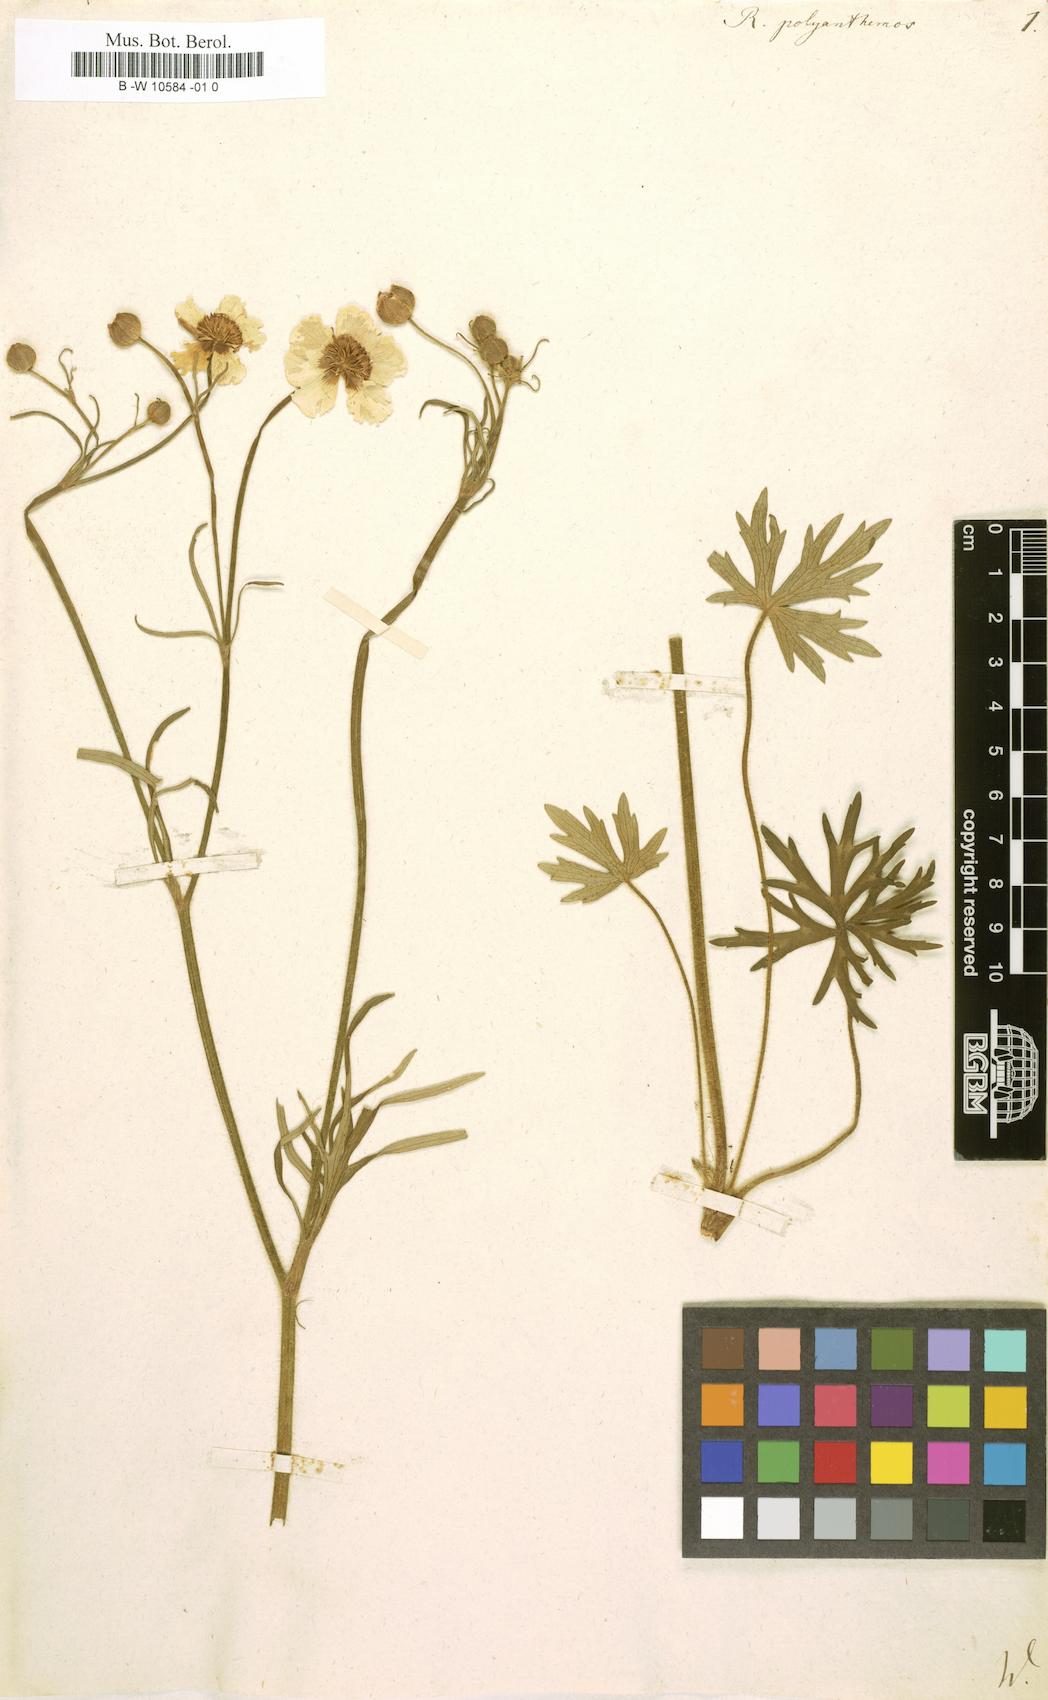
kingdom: Plantae
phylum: Tracheophyta
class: Magnoliopsida
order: Ranunculales
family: Ranunculaceae
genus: Ranunculus
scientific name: Ranunculus polyanthemos
